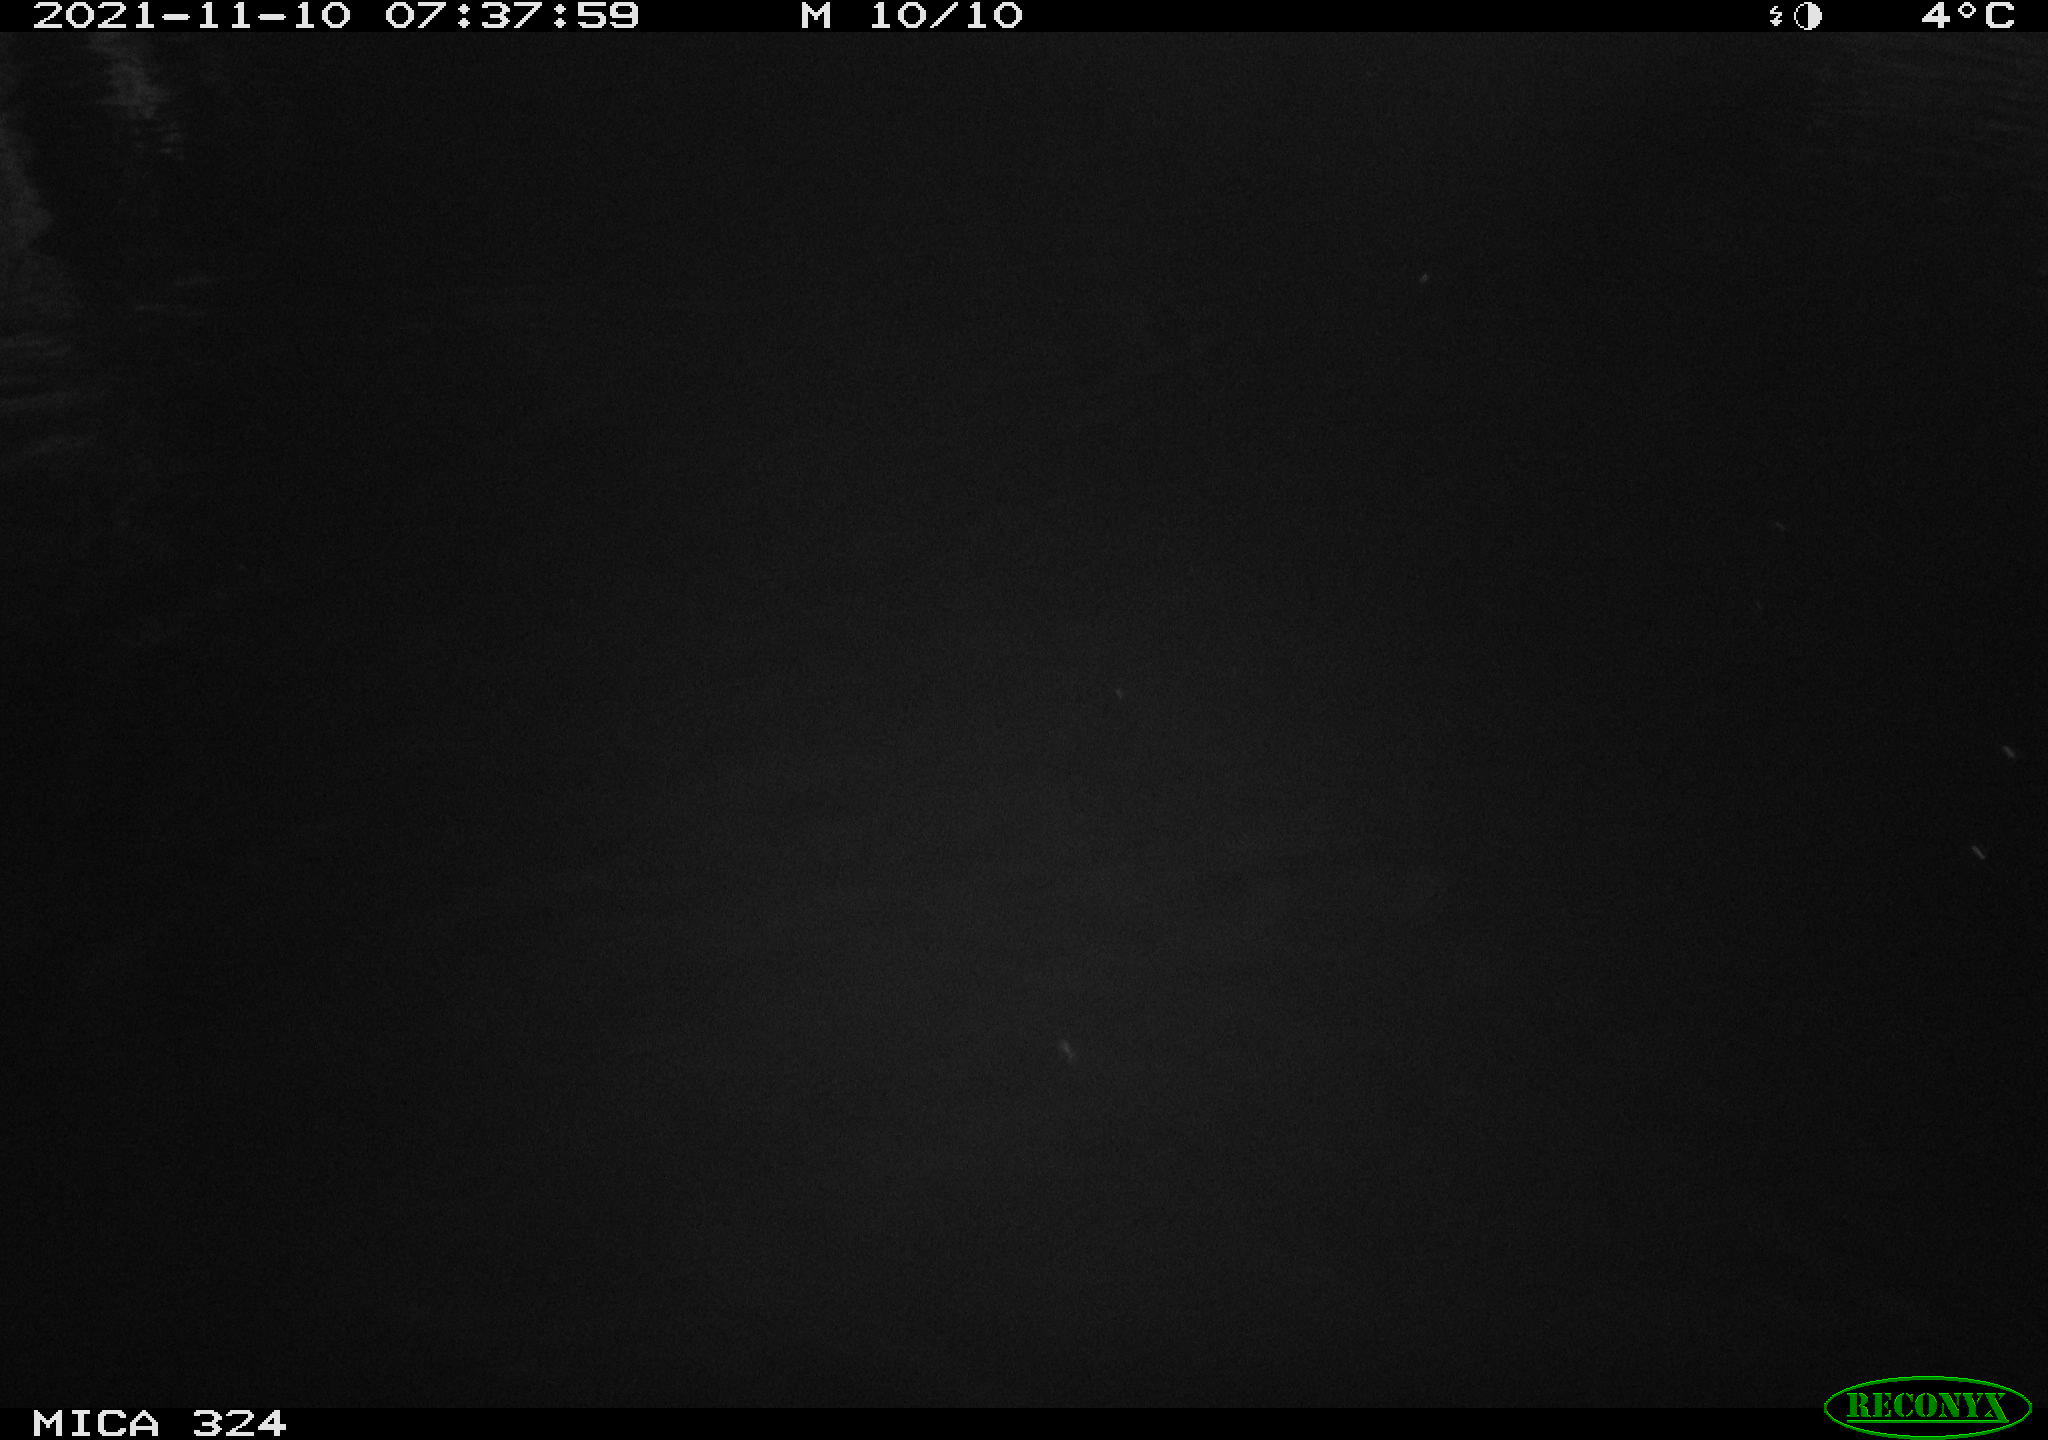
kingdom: Animalia
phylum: Chordata
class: Mammalia
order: Rodentia
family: Cricetidae
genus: Ondatra
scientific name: Ondatra zibethicus
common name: Muskrat
